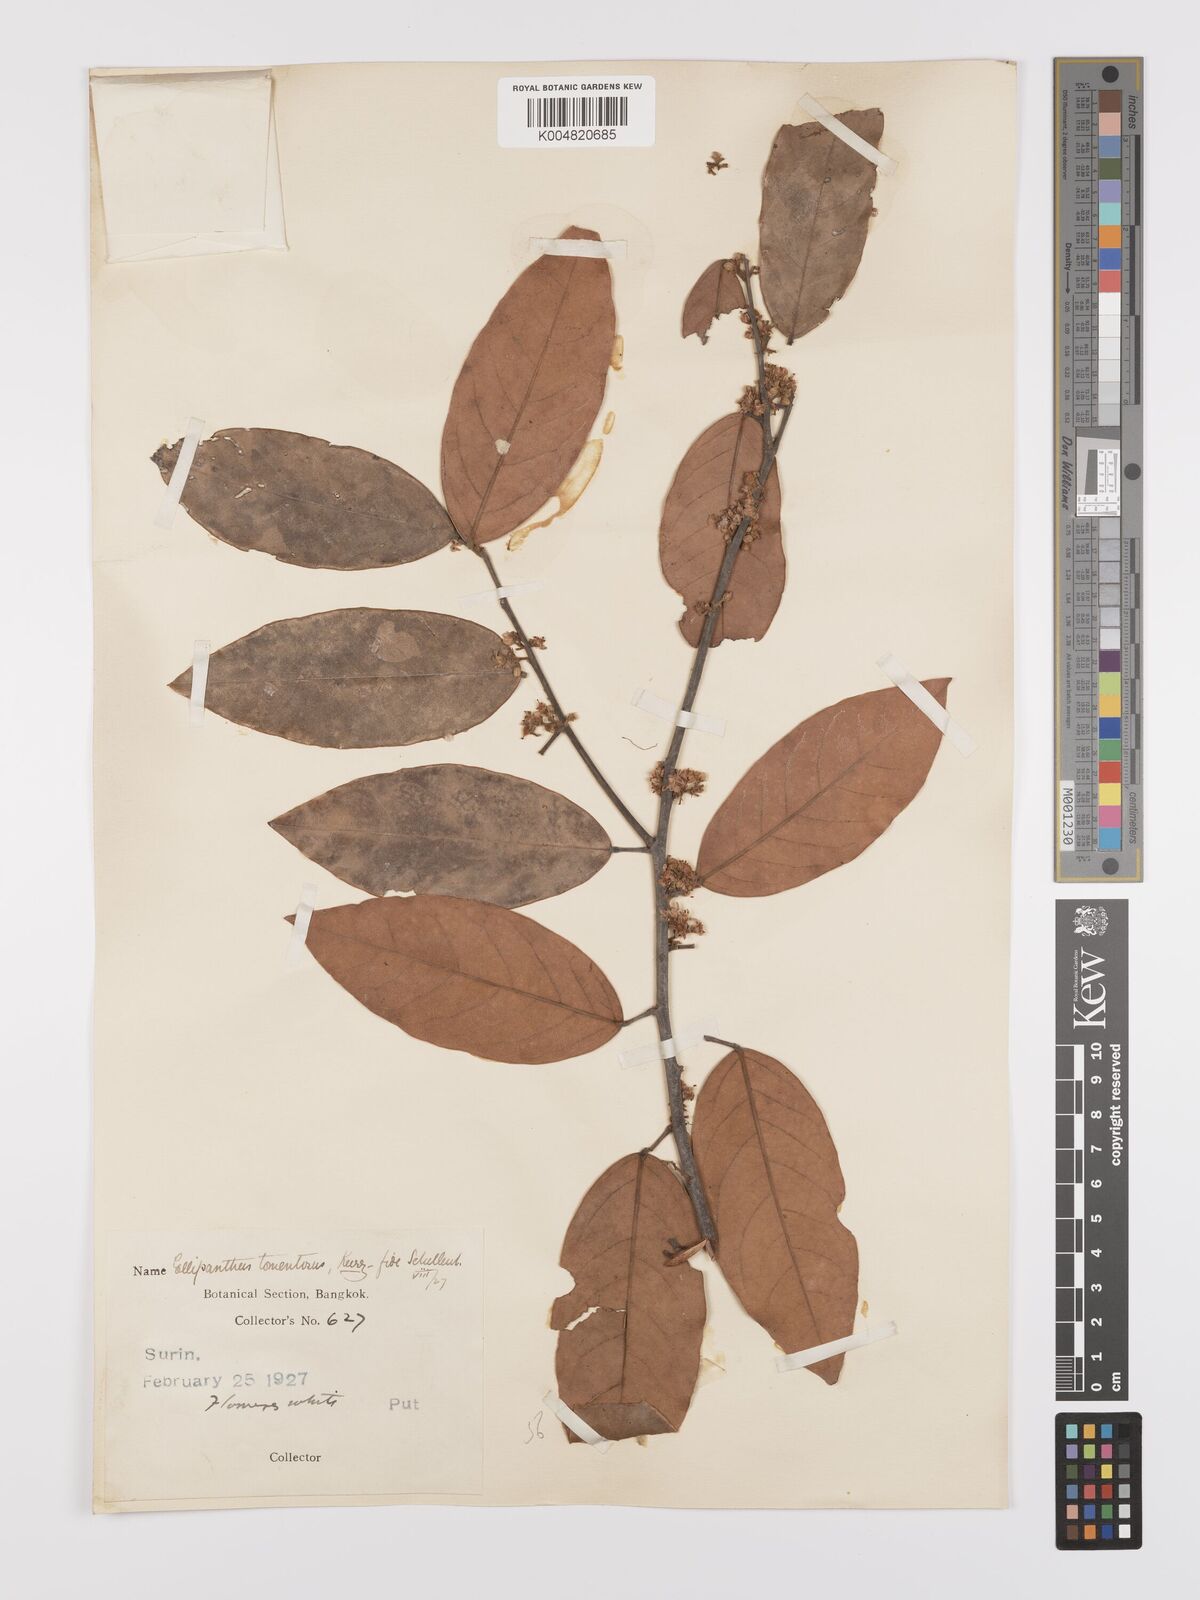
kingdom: Plantae
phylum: Tracheophyta
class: Magnoliopsida
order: Oxalidales
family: Connaraceae
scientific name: Connaraceae
